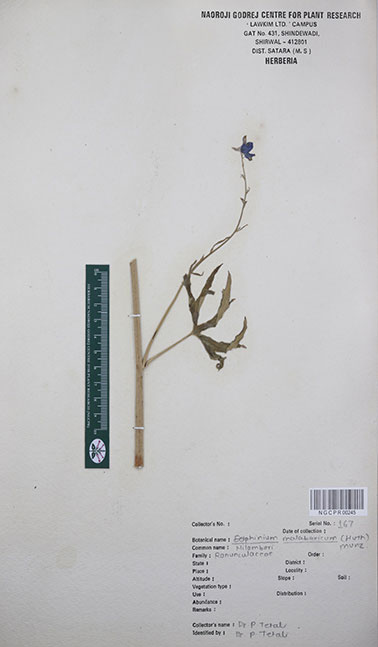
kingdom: Plantae
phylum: Tracheophyta
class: Magnoliopsida
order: Ranunculales
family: Ranunculaceae
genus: Delphinium
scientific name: Delphinium malabaricum
